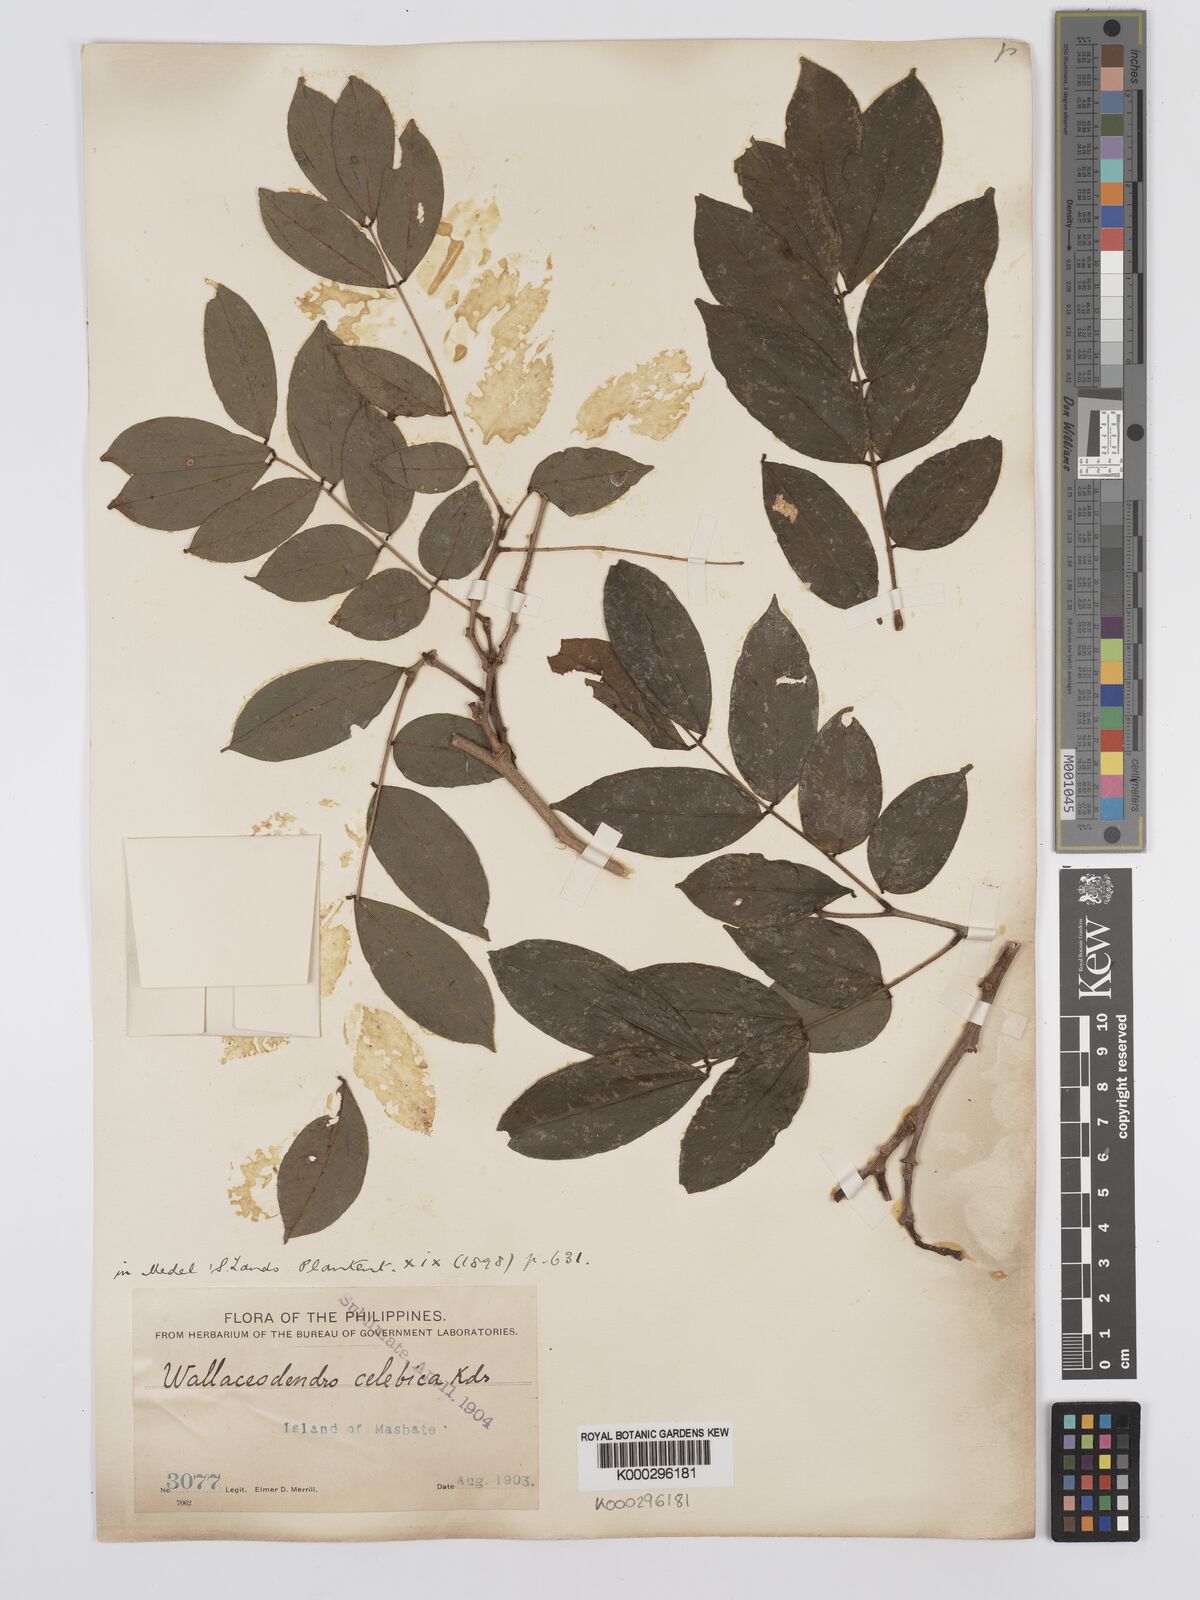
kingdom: Plantae
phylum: Tracheophyta
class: Magnoliopsida
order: Fabales
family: Fabaceae
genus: Wallaceodendron
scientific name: Wallaceodendron celebicum
